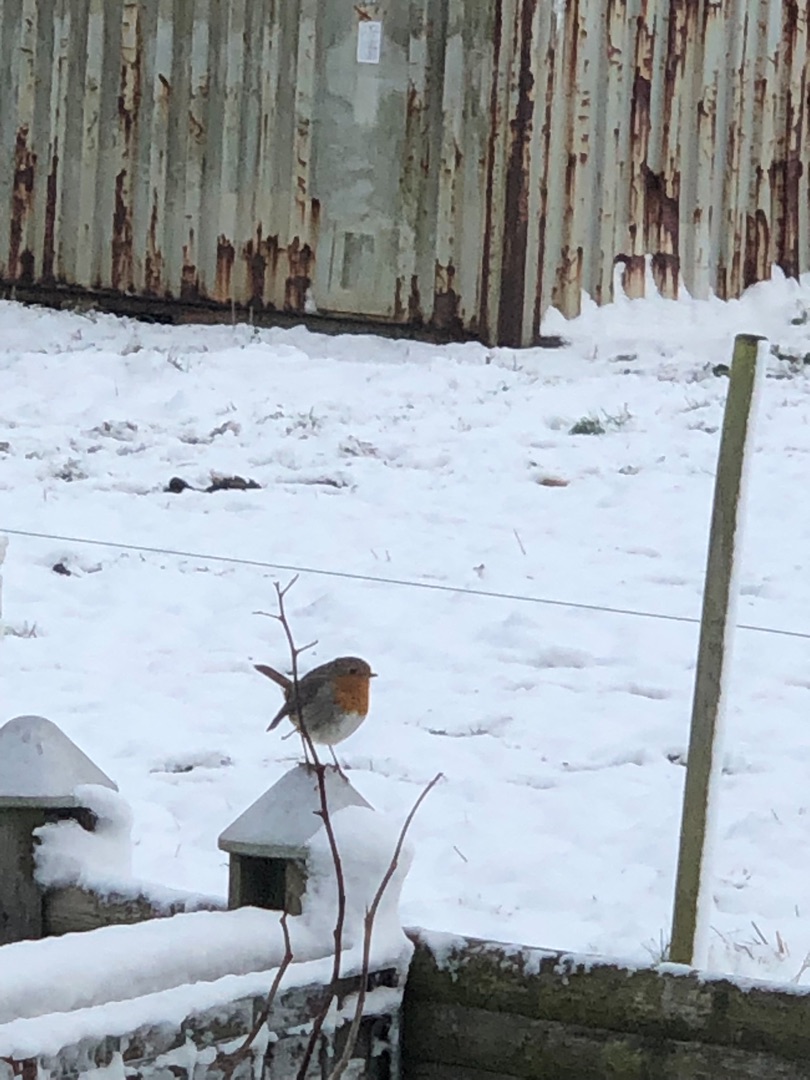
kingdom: Animalia
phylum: Chordata
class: Aves
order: Passeriformes
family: Muscicapidae
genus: Erithacus
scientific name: Erithacus rubecula
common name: Rødhals/rødkælk
